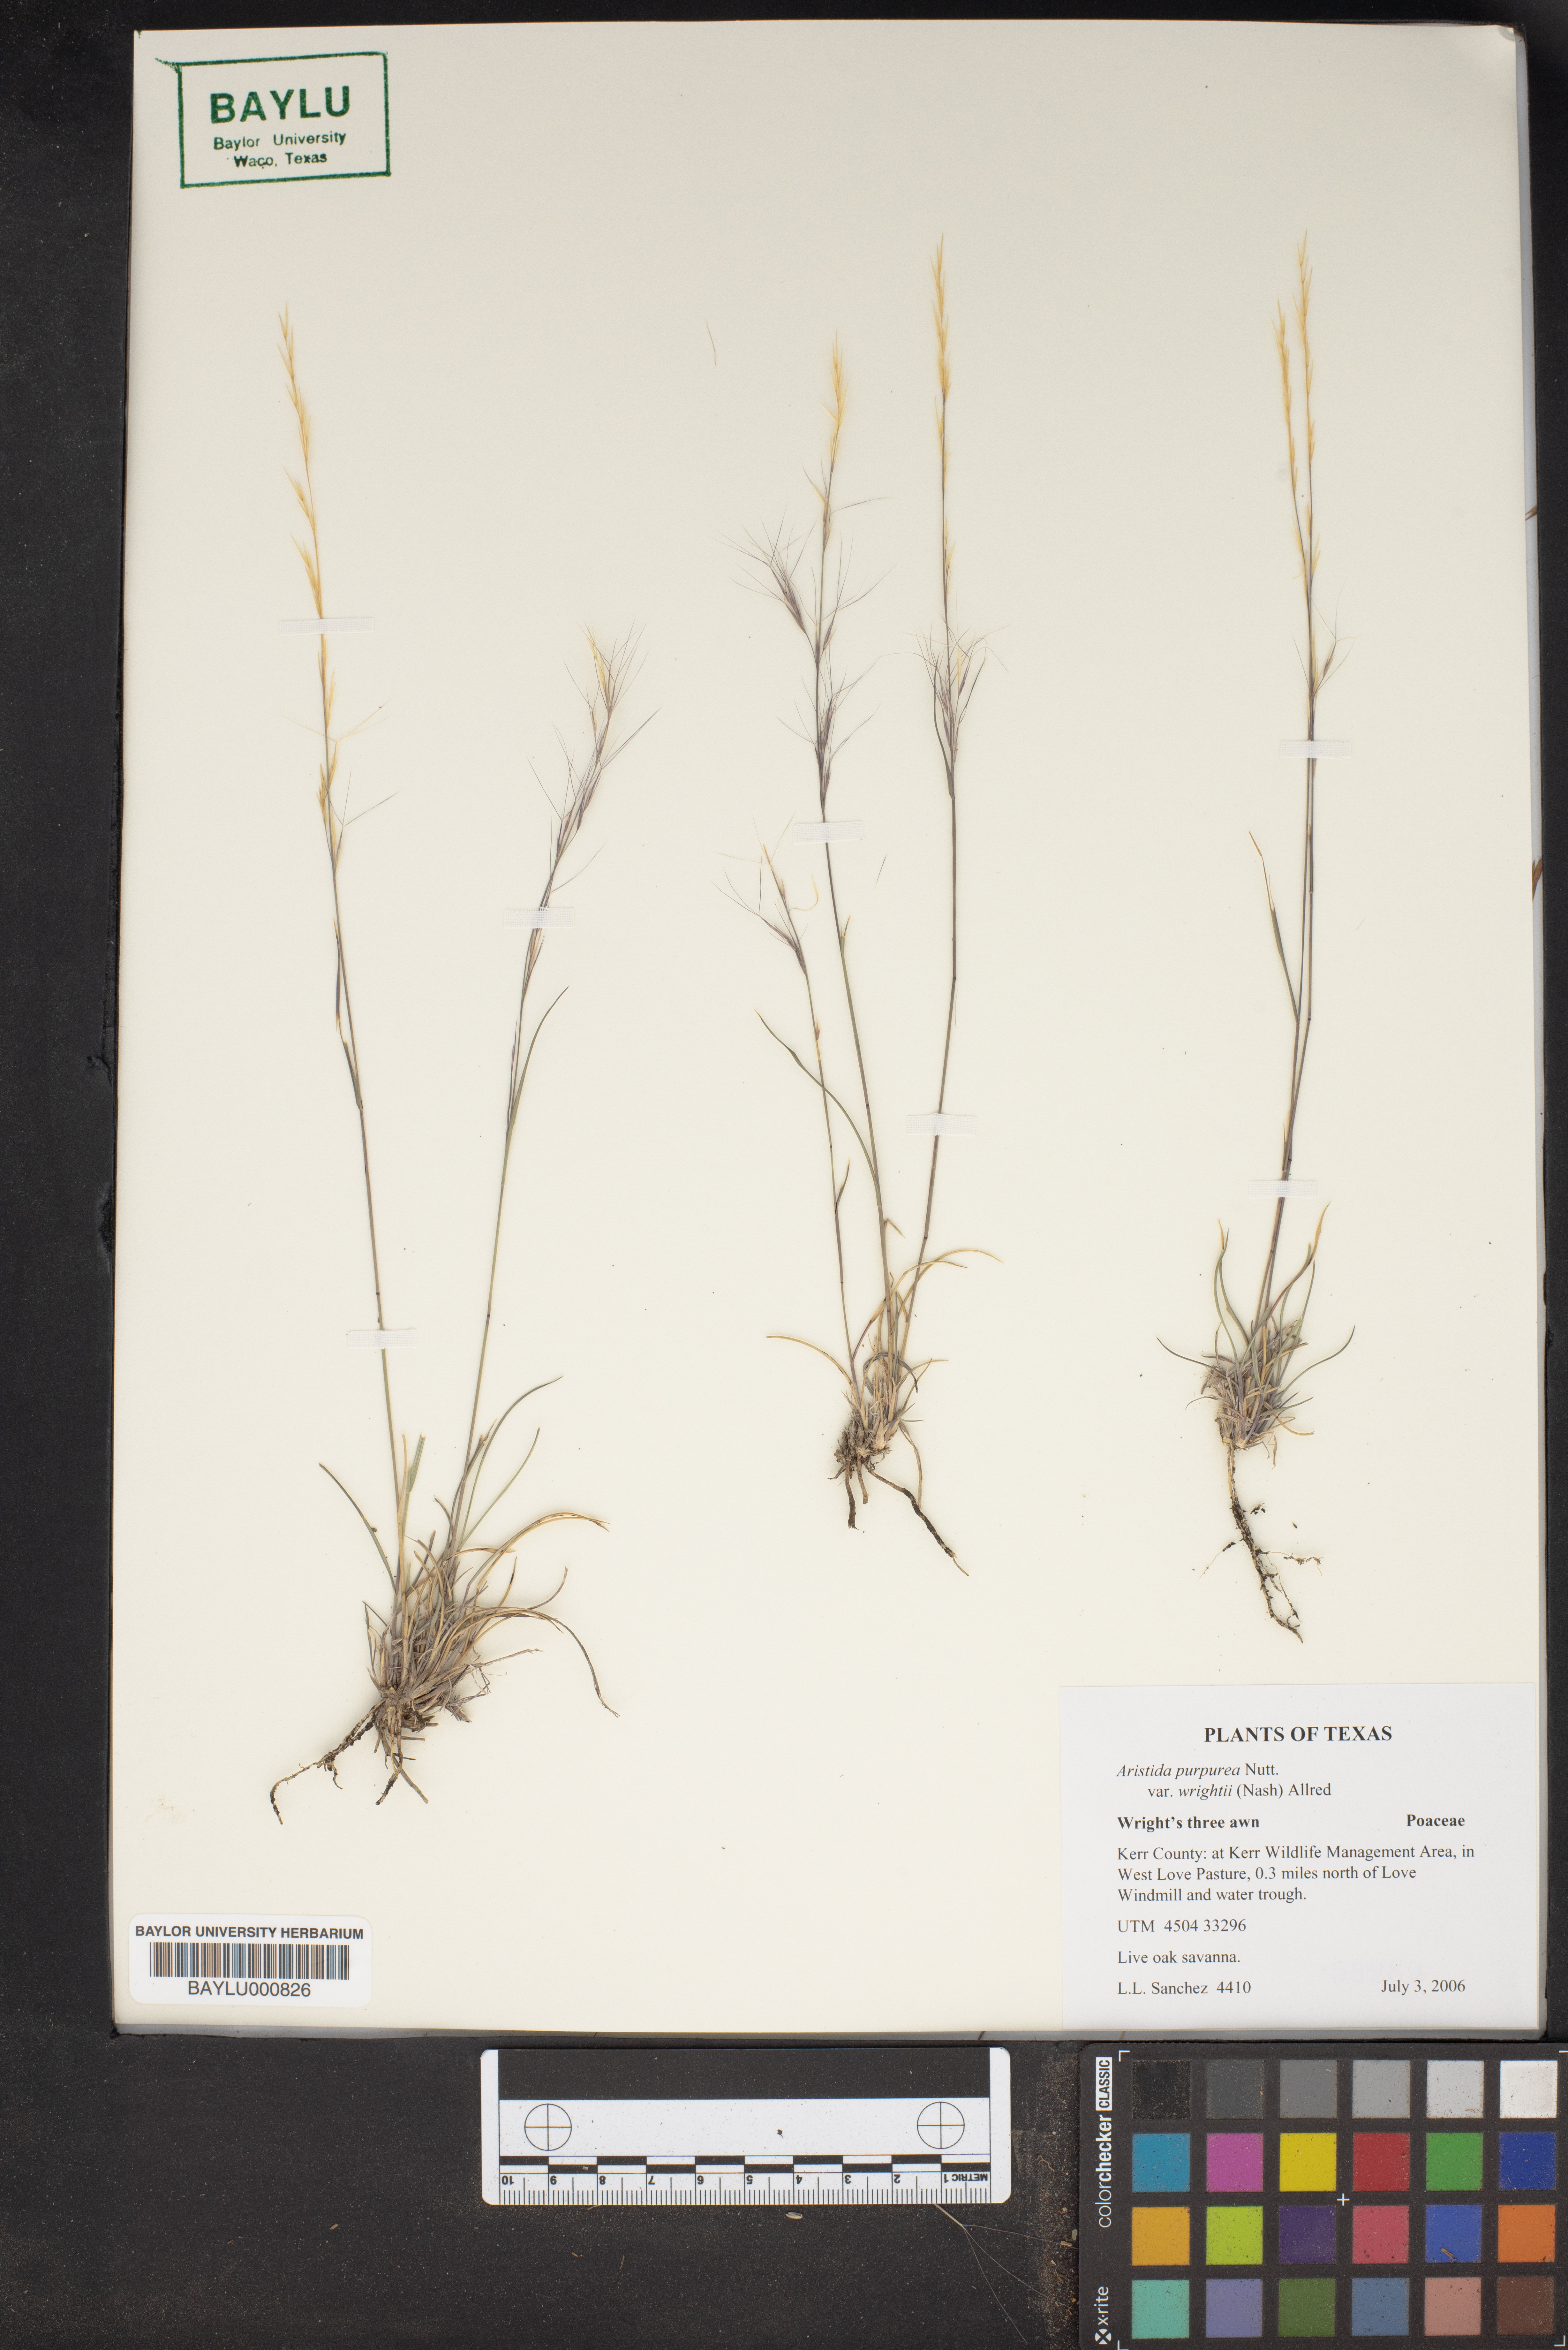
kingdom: Plantae
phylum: Tracheophyta
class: Liliopsida
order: Poales
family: Poaceae
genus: Aristida
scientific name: Aristida wrightii
